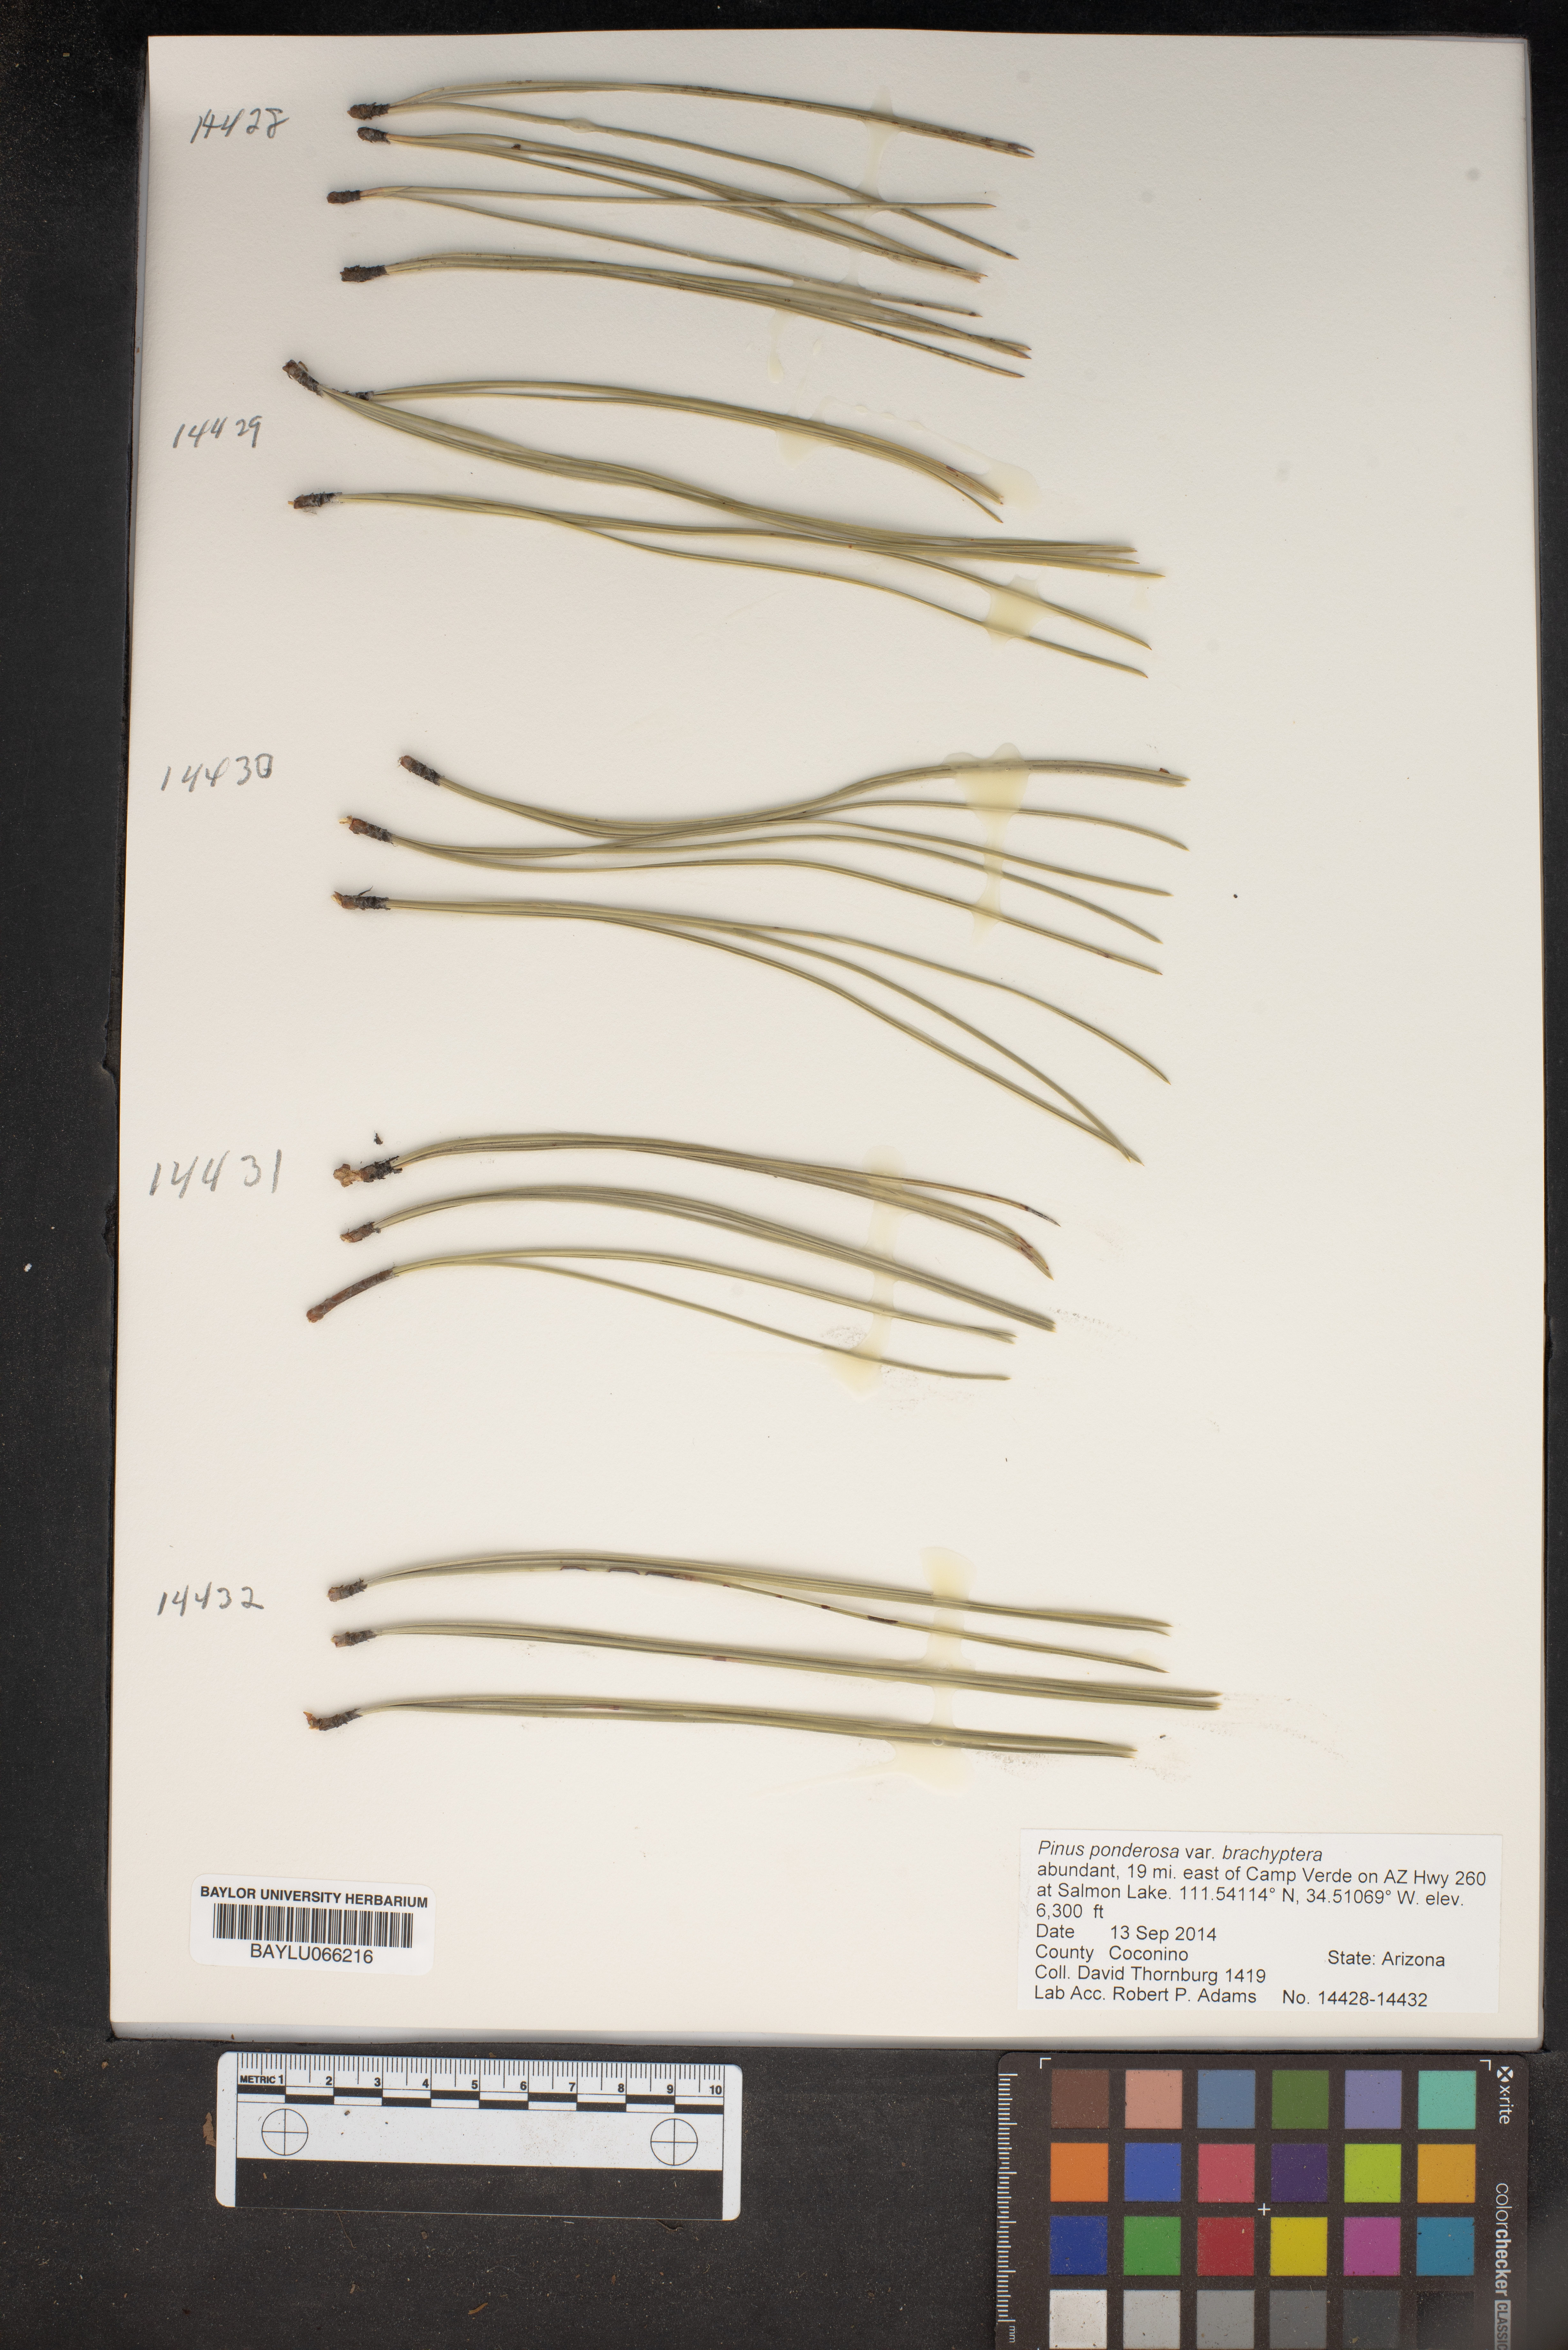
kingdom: Plantae
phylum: Tracheophyta
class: Pinopsida
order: Pinales
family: Pinaceae
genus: Pinus
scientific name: Pinus ponderosa
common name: Western yellow-pine
